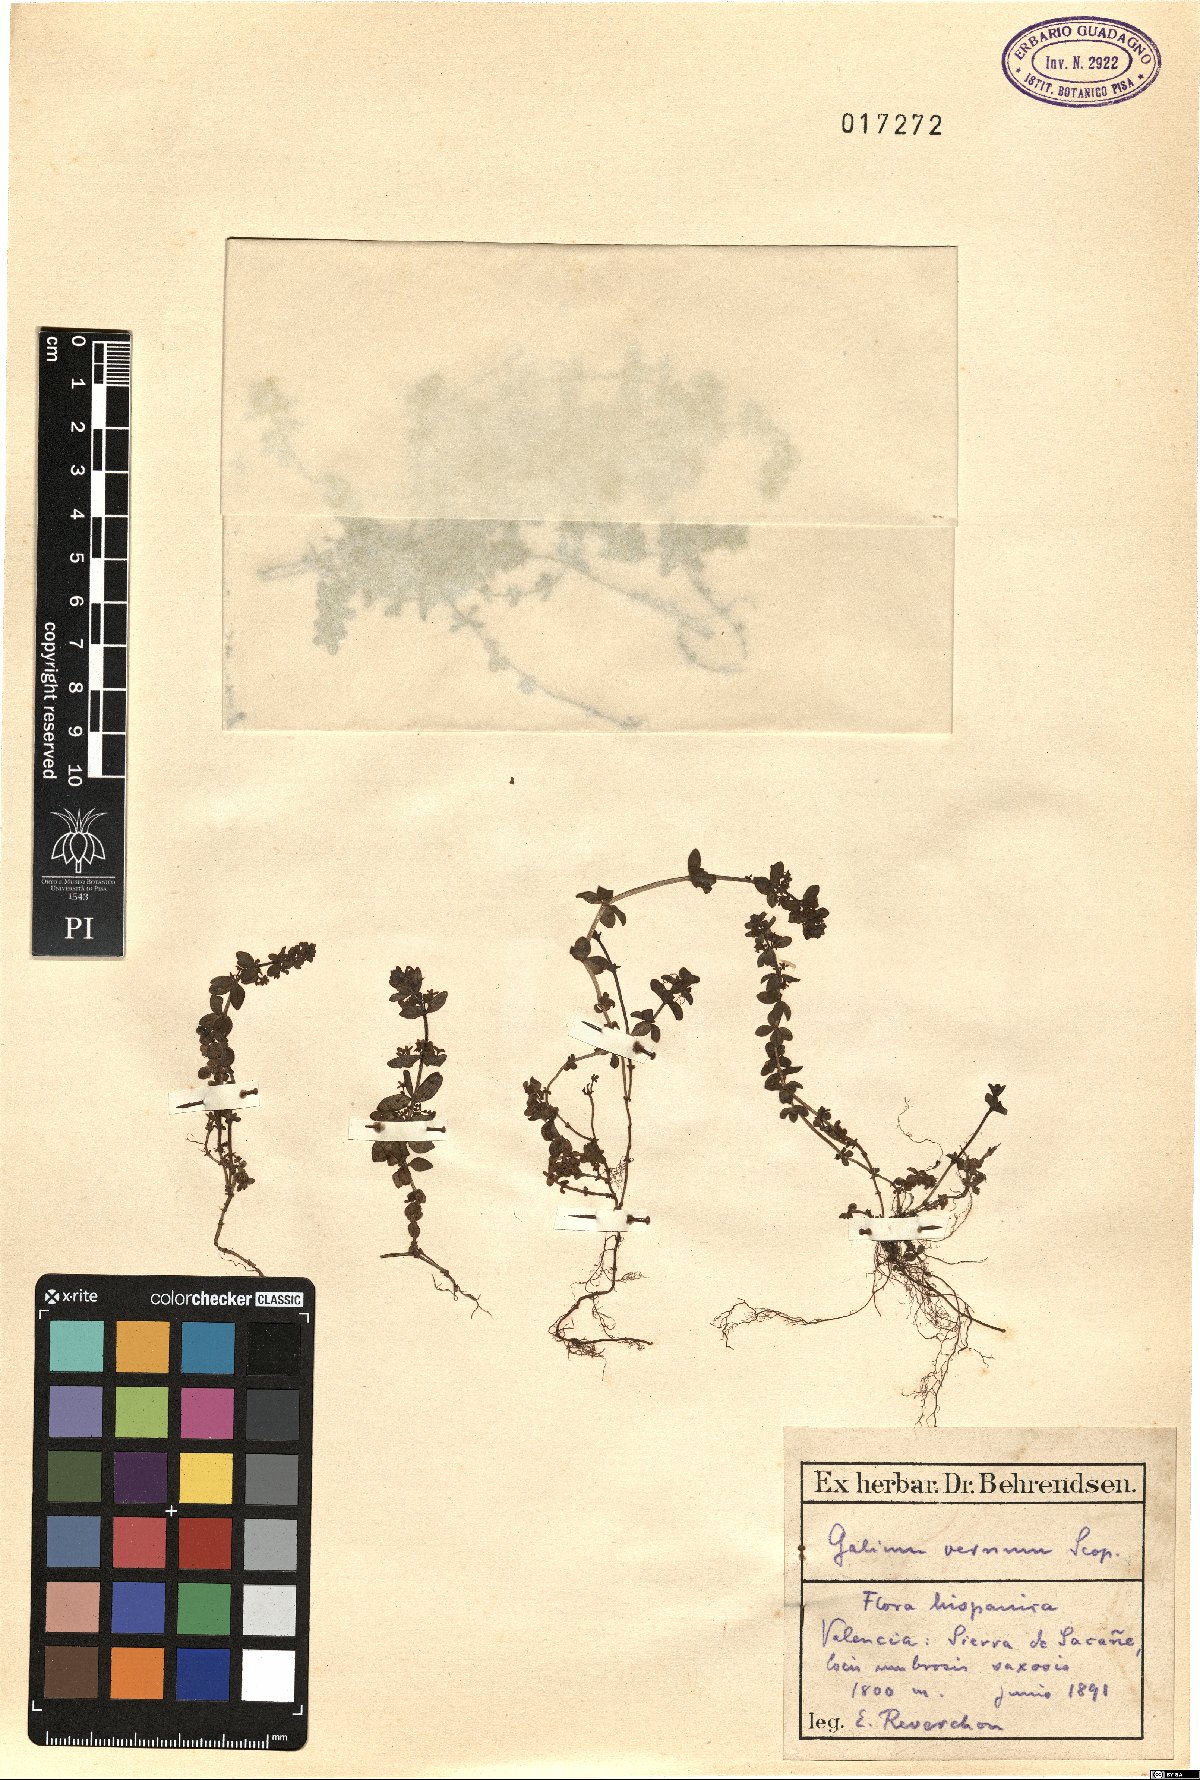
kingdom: Plantae
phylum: Tracheophyta
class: Magnoliopsida
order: Gentianales
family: Rubiaceae
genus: Cruciata
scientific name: Cruciata glabra
